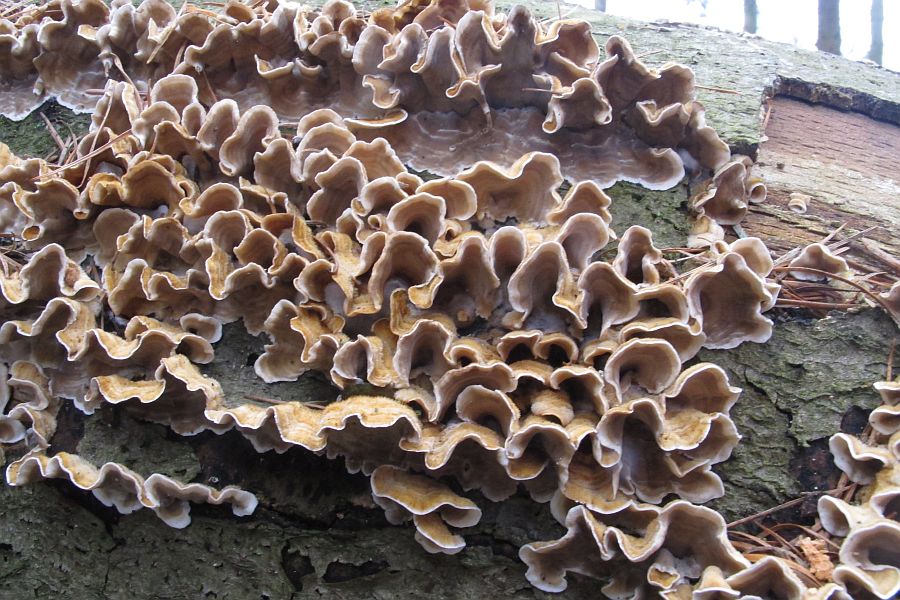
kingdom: Fungi
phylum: Basidiomycota
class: Agaricomycetes
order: Russulales
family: Stereaceae
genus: Stereum
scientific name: Stereum
